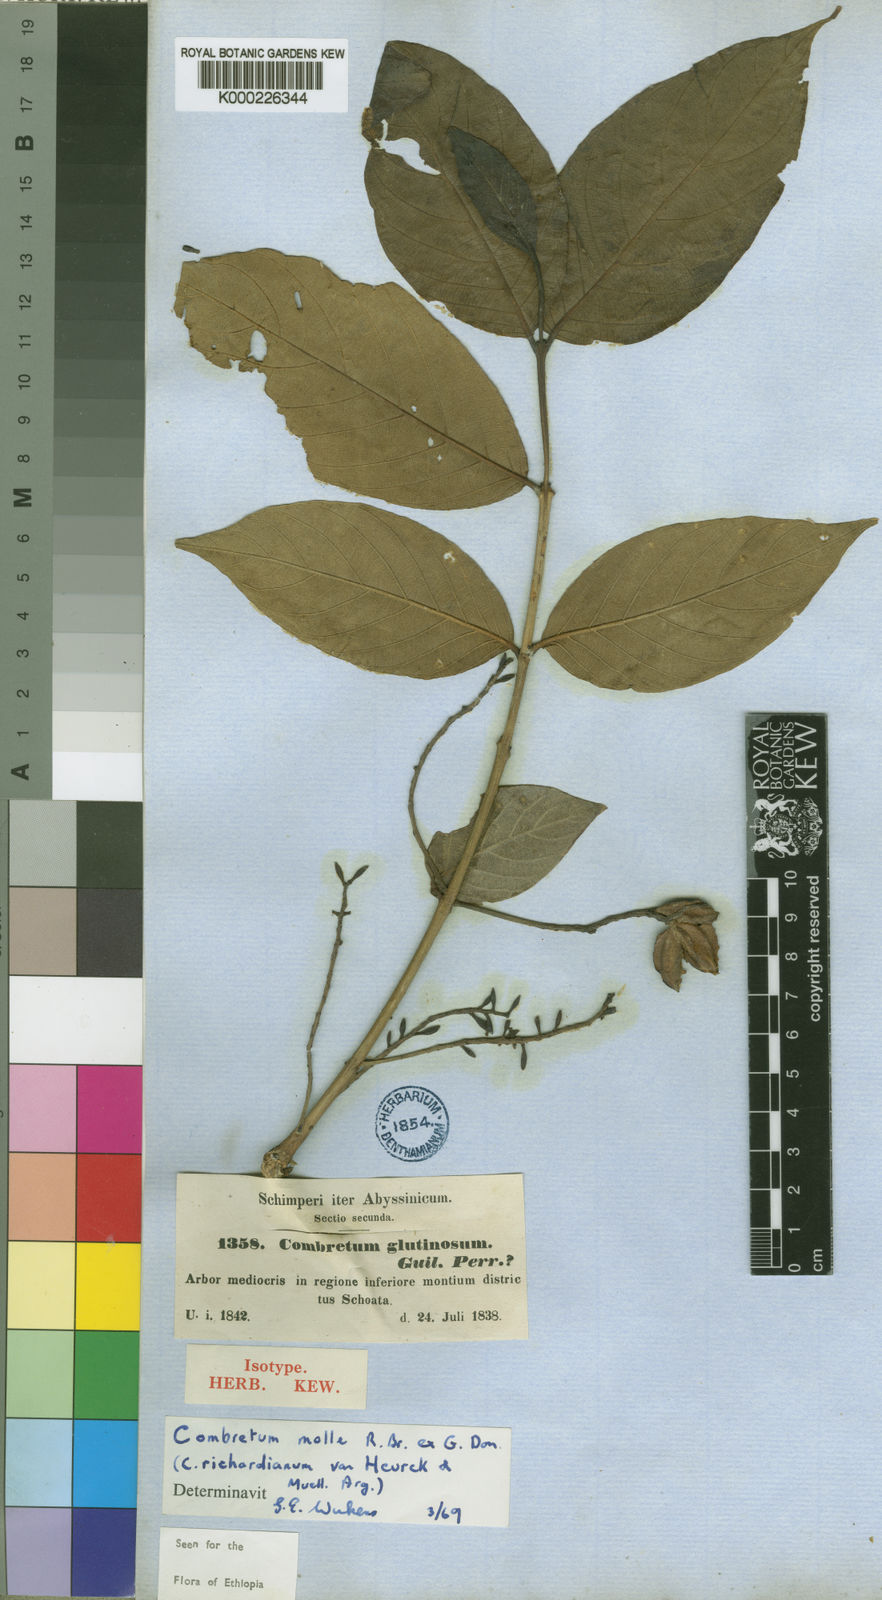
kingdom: Plantae
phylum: Tracheophyta
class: Magnoliopsida
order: Myrtales
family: Combretaceae
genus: Combretum
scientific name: Combretum molle
